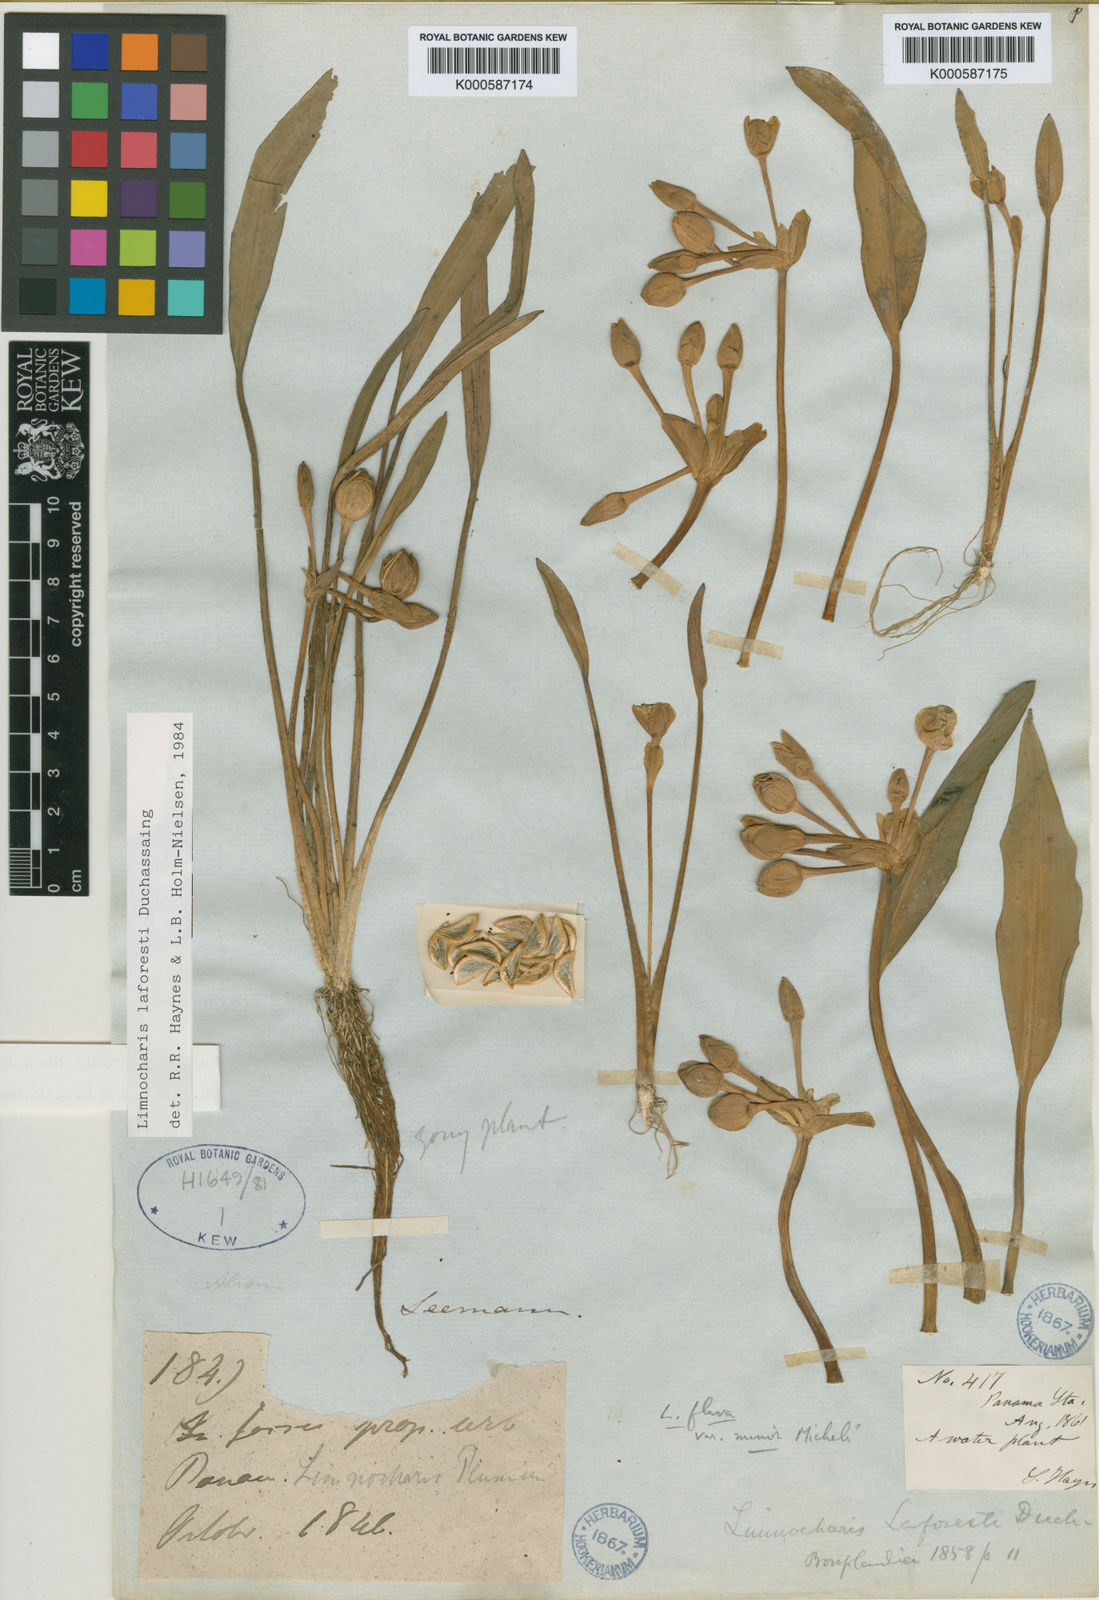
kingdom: Plantae
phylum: Tracheophyta
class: Liliopsida
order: Alismatales
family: Alismataceae
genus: Limnocharis
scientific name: Limnocharis laforestii
